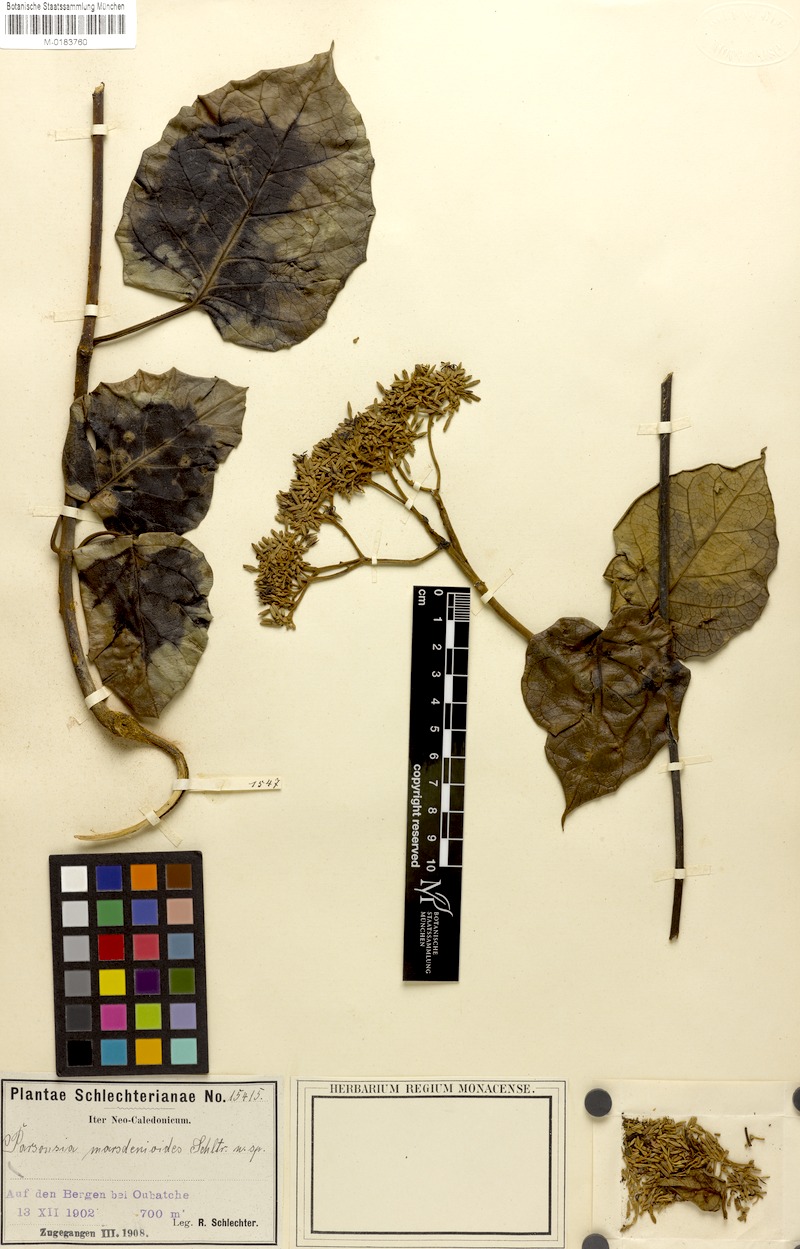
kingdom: Plantae
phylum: Tracheophyta
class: Magnoliopsida
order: Gentianales
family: Apocynaceae
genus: Parsonsia
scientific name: Parsonsia crebriflora
